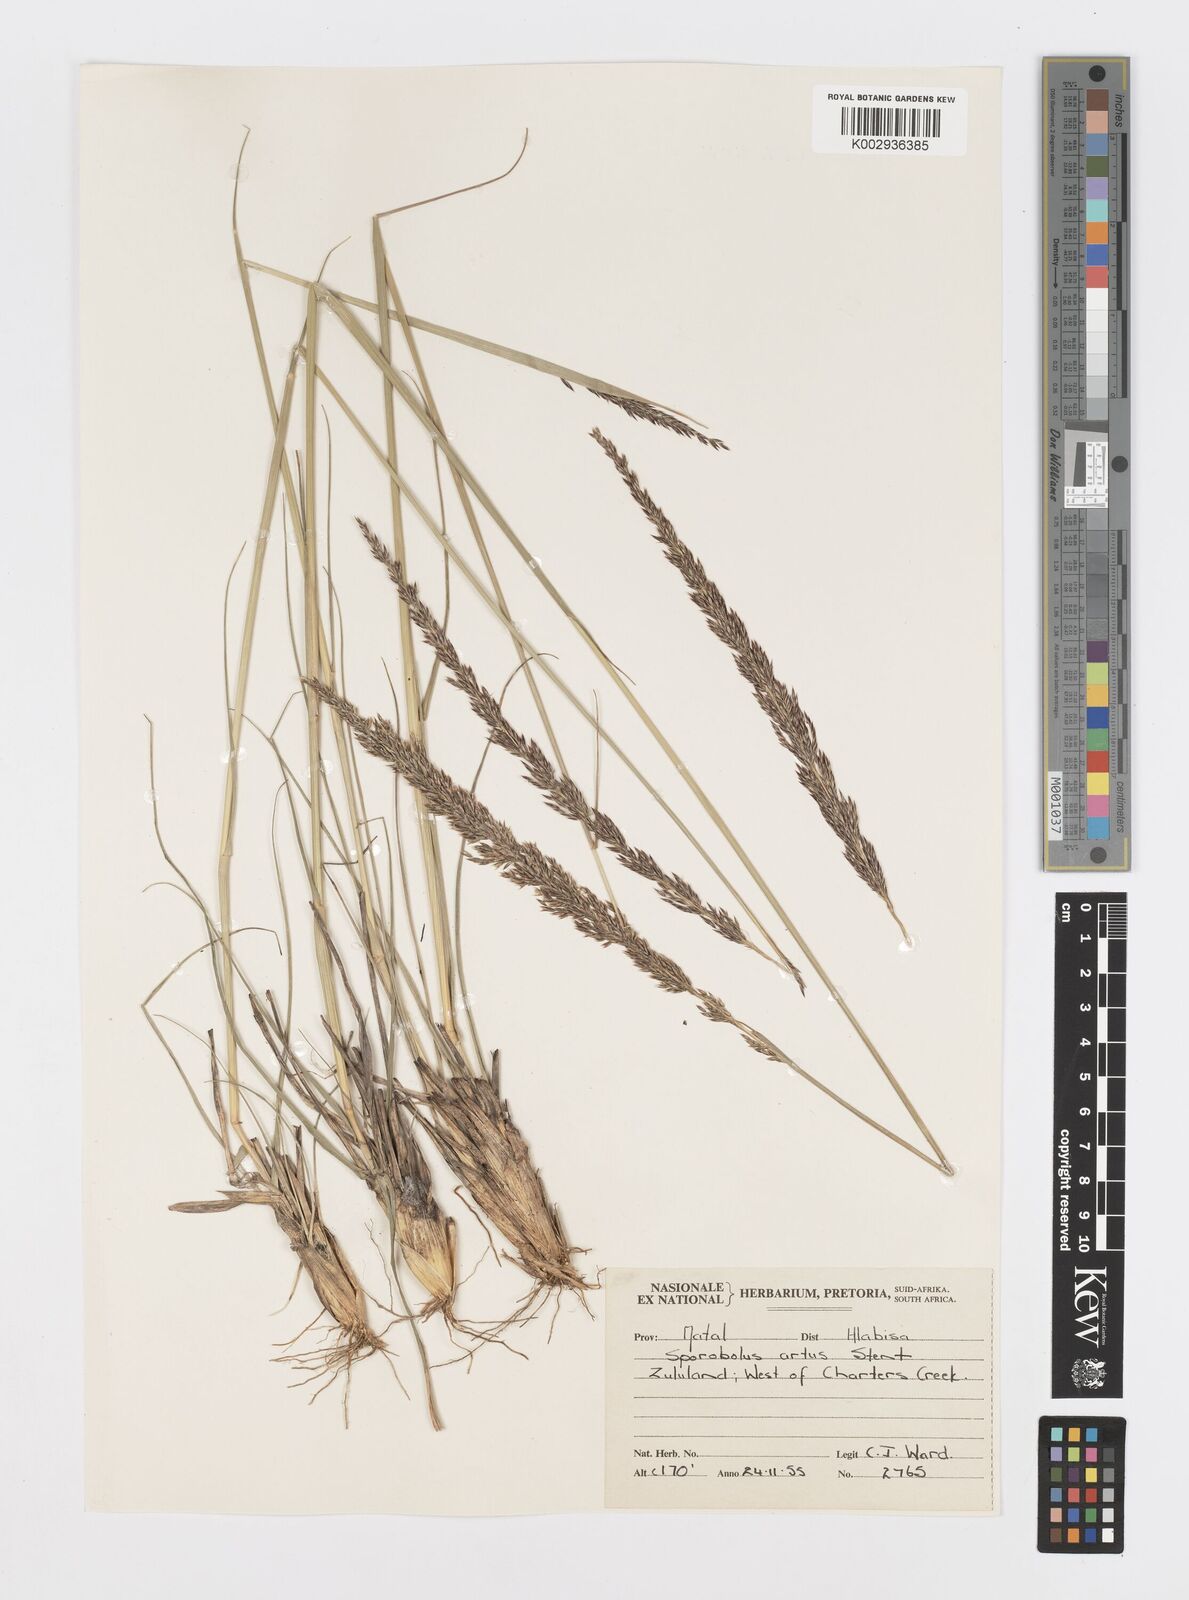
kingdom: Plantae
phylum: Tracheophyta
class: Liliopsida
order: Poales
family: Poaceae
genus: Sporobolus
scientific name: Sporobolus sanguineus
